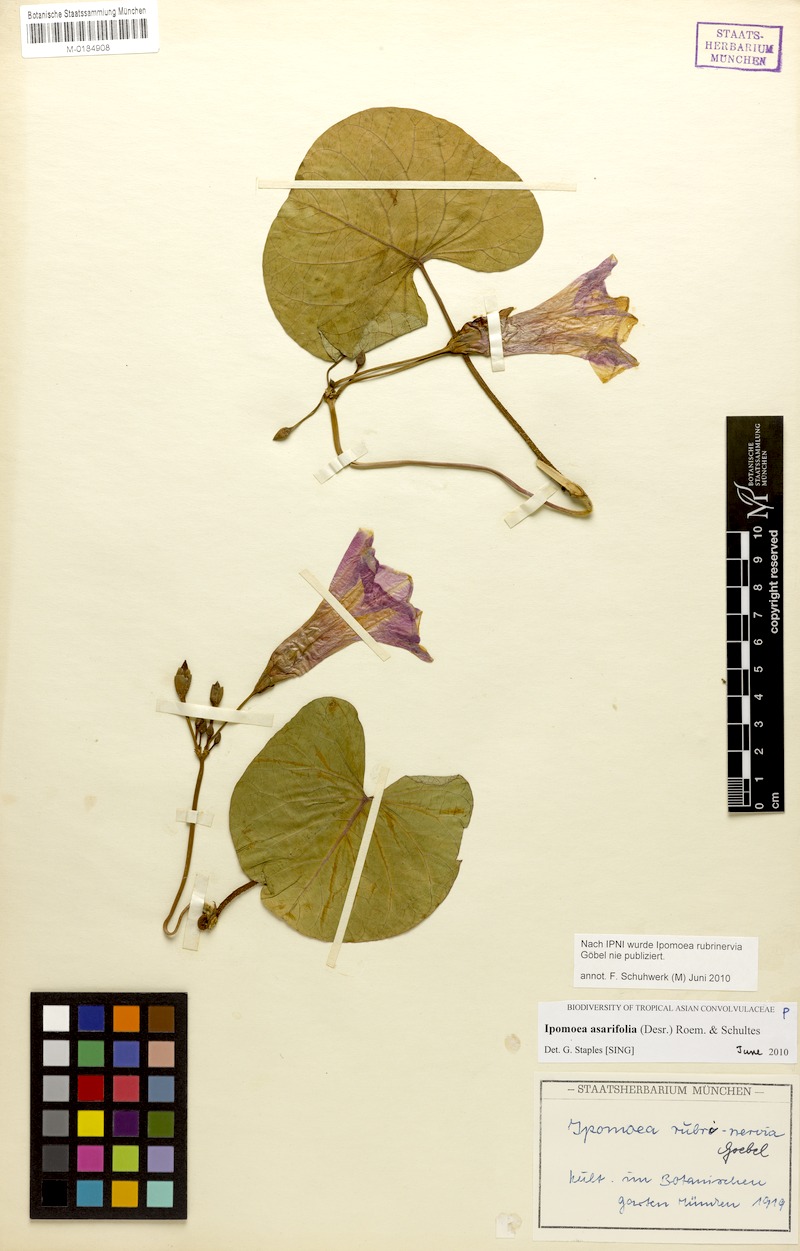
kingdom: Plantae
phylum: Tracheophyta
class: Magnoliopsida
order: Solanales
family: Convolvulaceae
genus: Ipomoea
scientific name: Ipomoea asarifolia
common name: Ginger-leaf morning-glory
